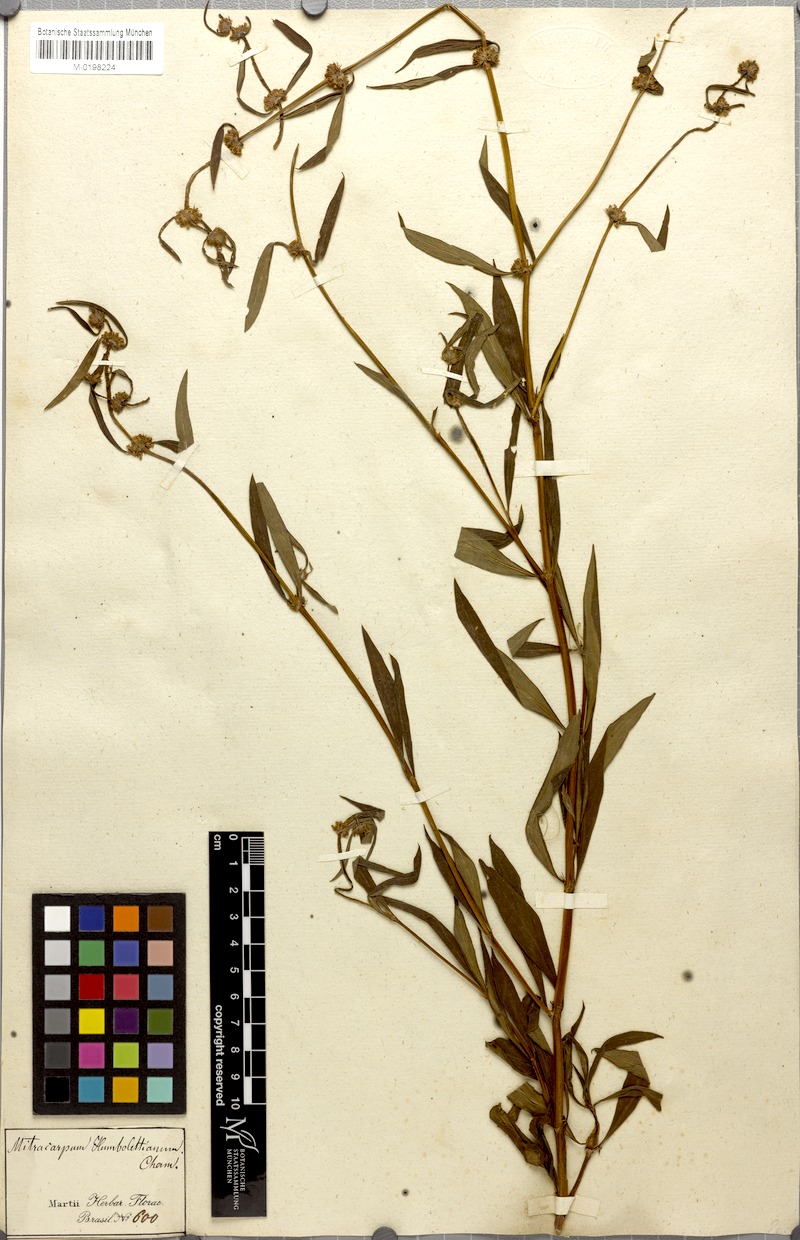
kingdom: Plantae
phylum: Tracheophyta
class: Magnoliopsida
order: Gentianales
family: Rubiaceae
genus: Mitracarpus
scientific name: Mitracarpus frigidus
